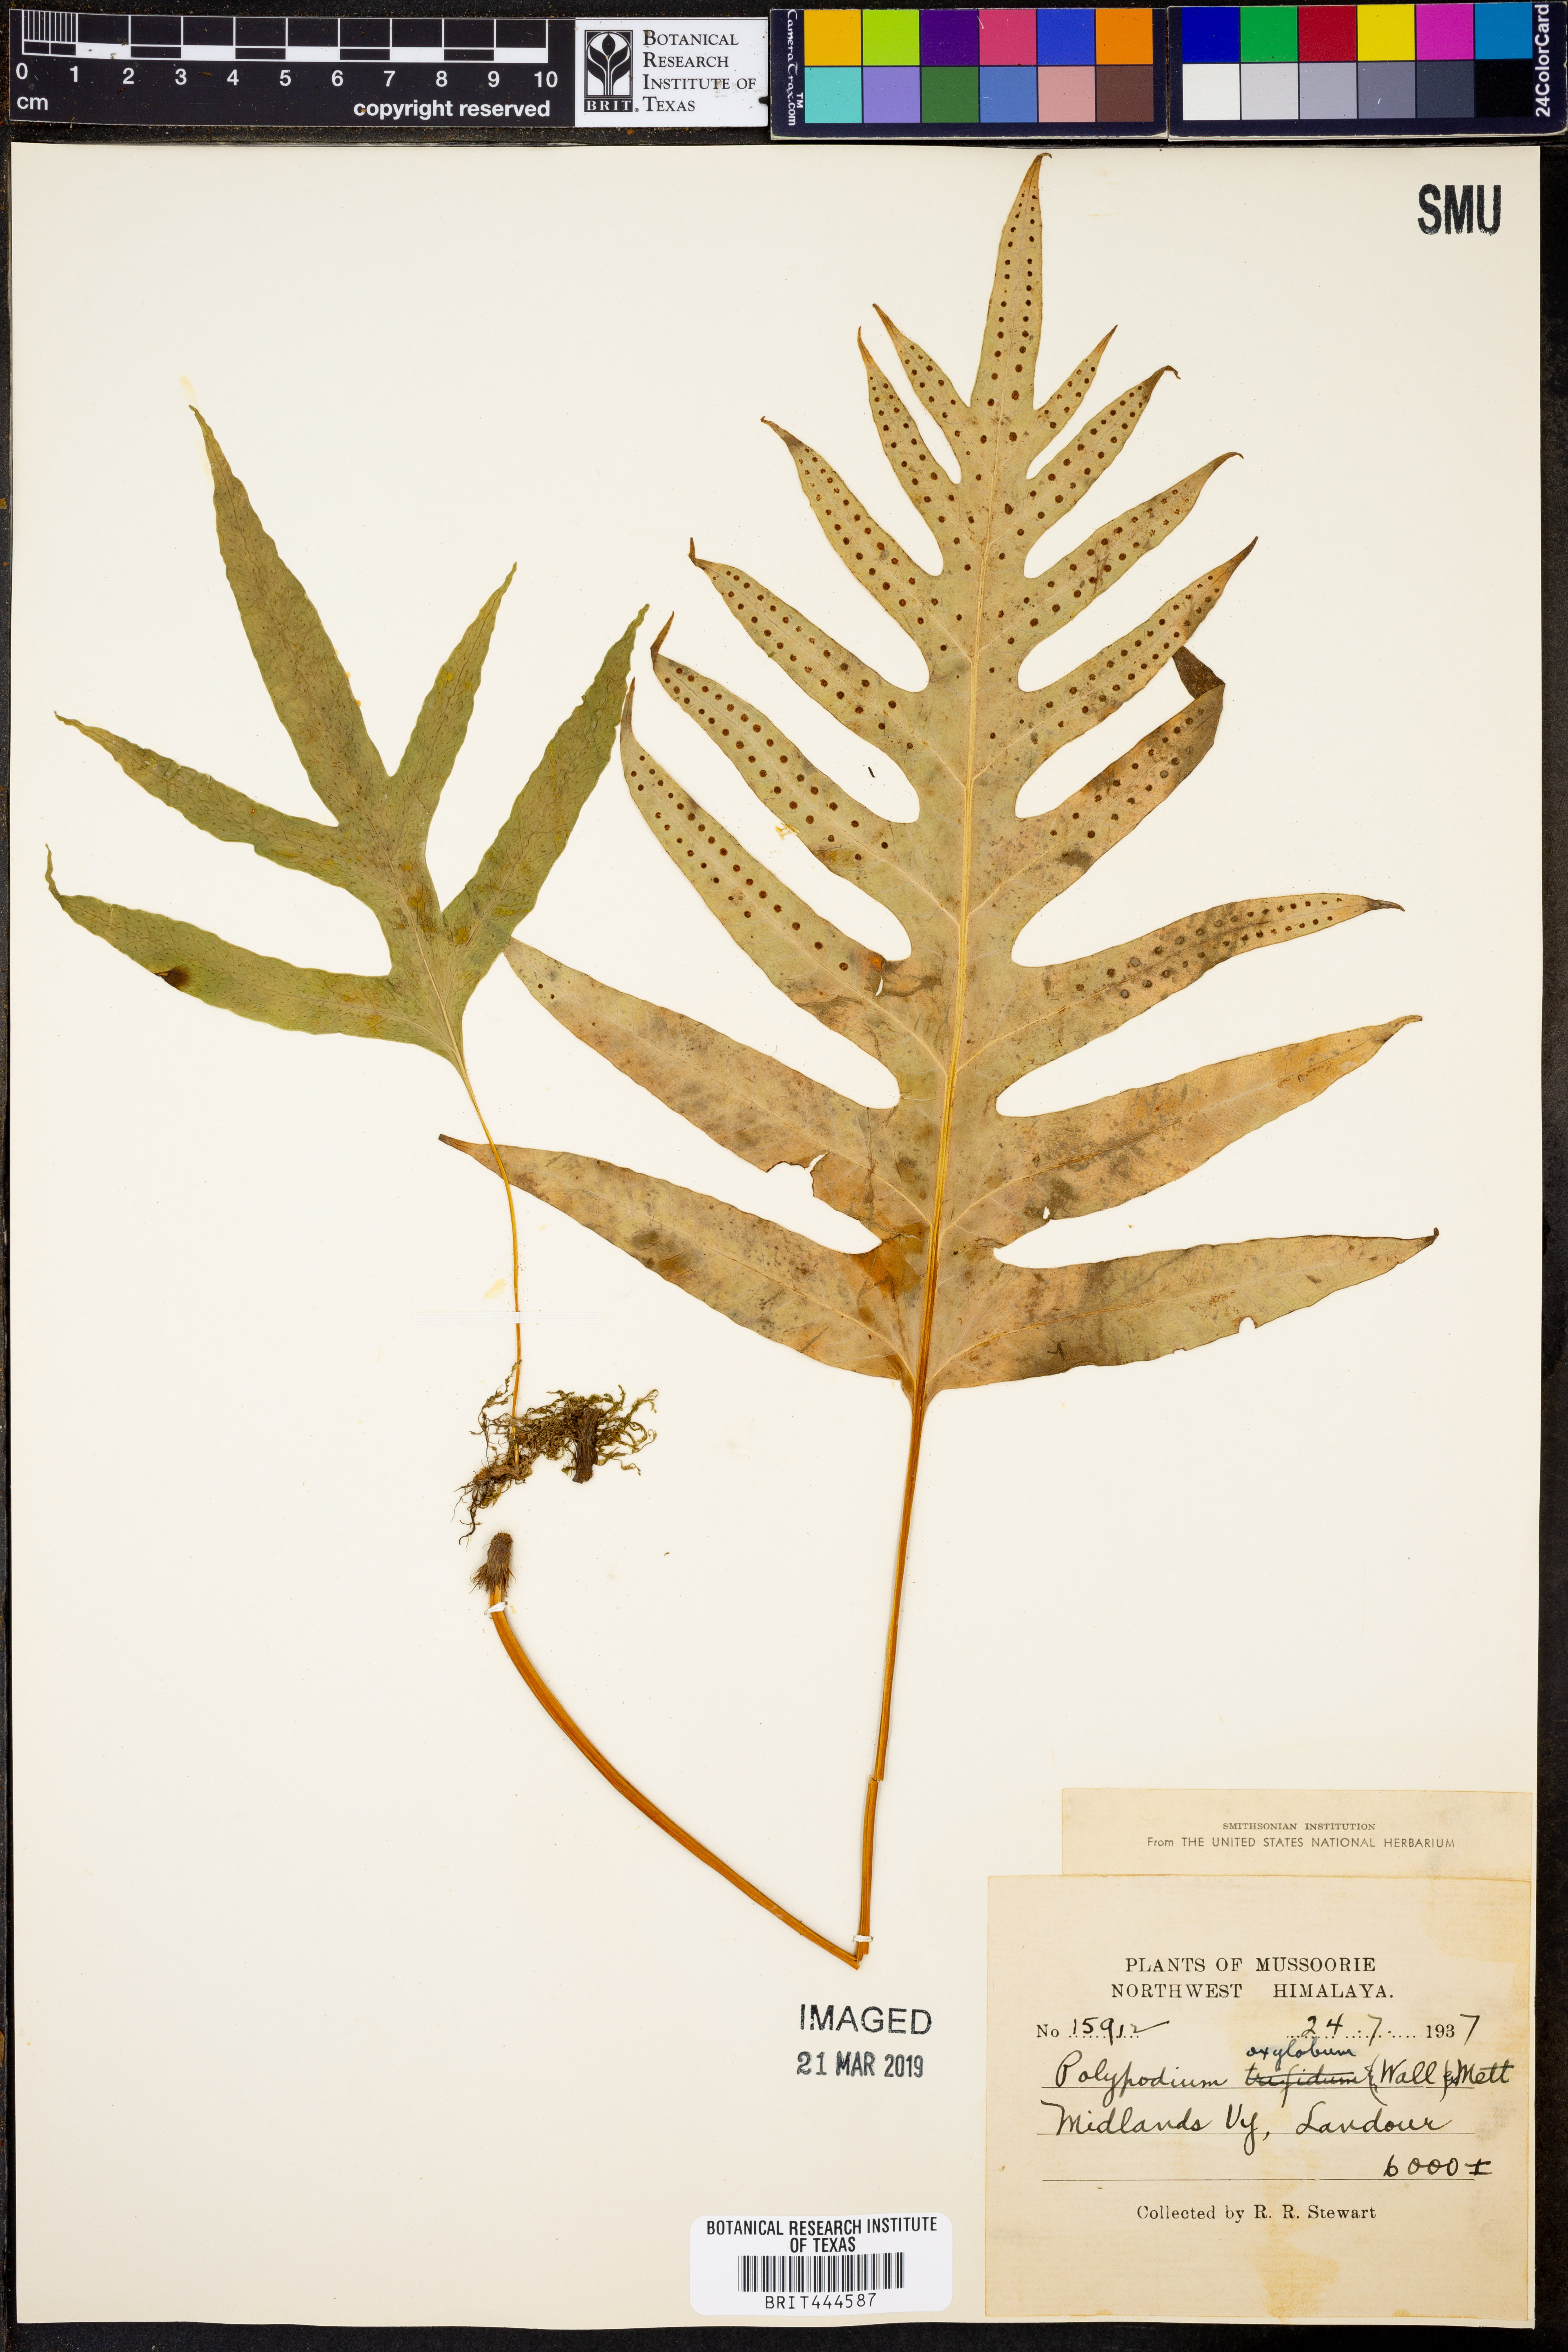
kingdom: Plantae
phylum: Tracheophyta
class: Polypodiopsida
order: Polypodiales
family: Polypodiaceae
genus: Selliguea
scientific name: Selliguea oxyloba
